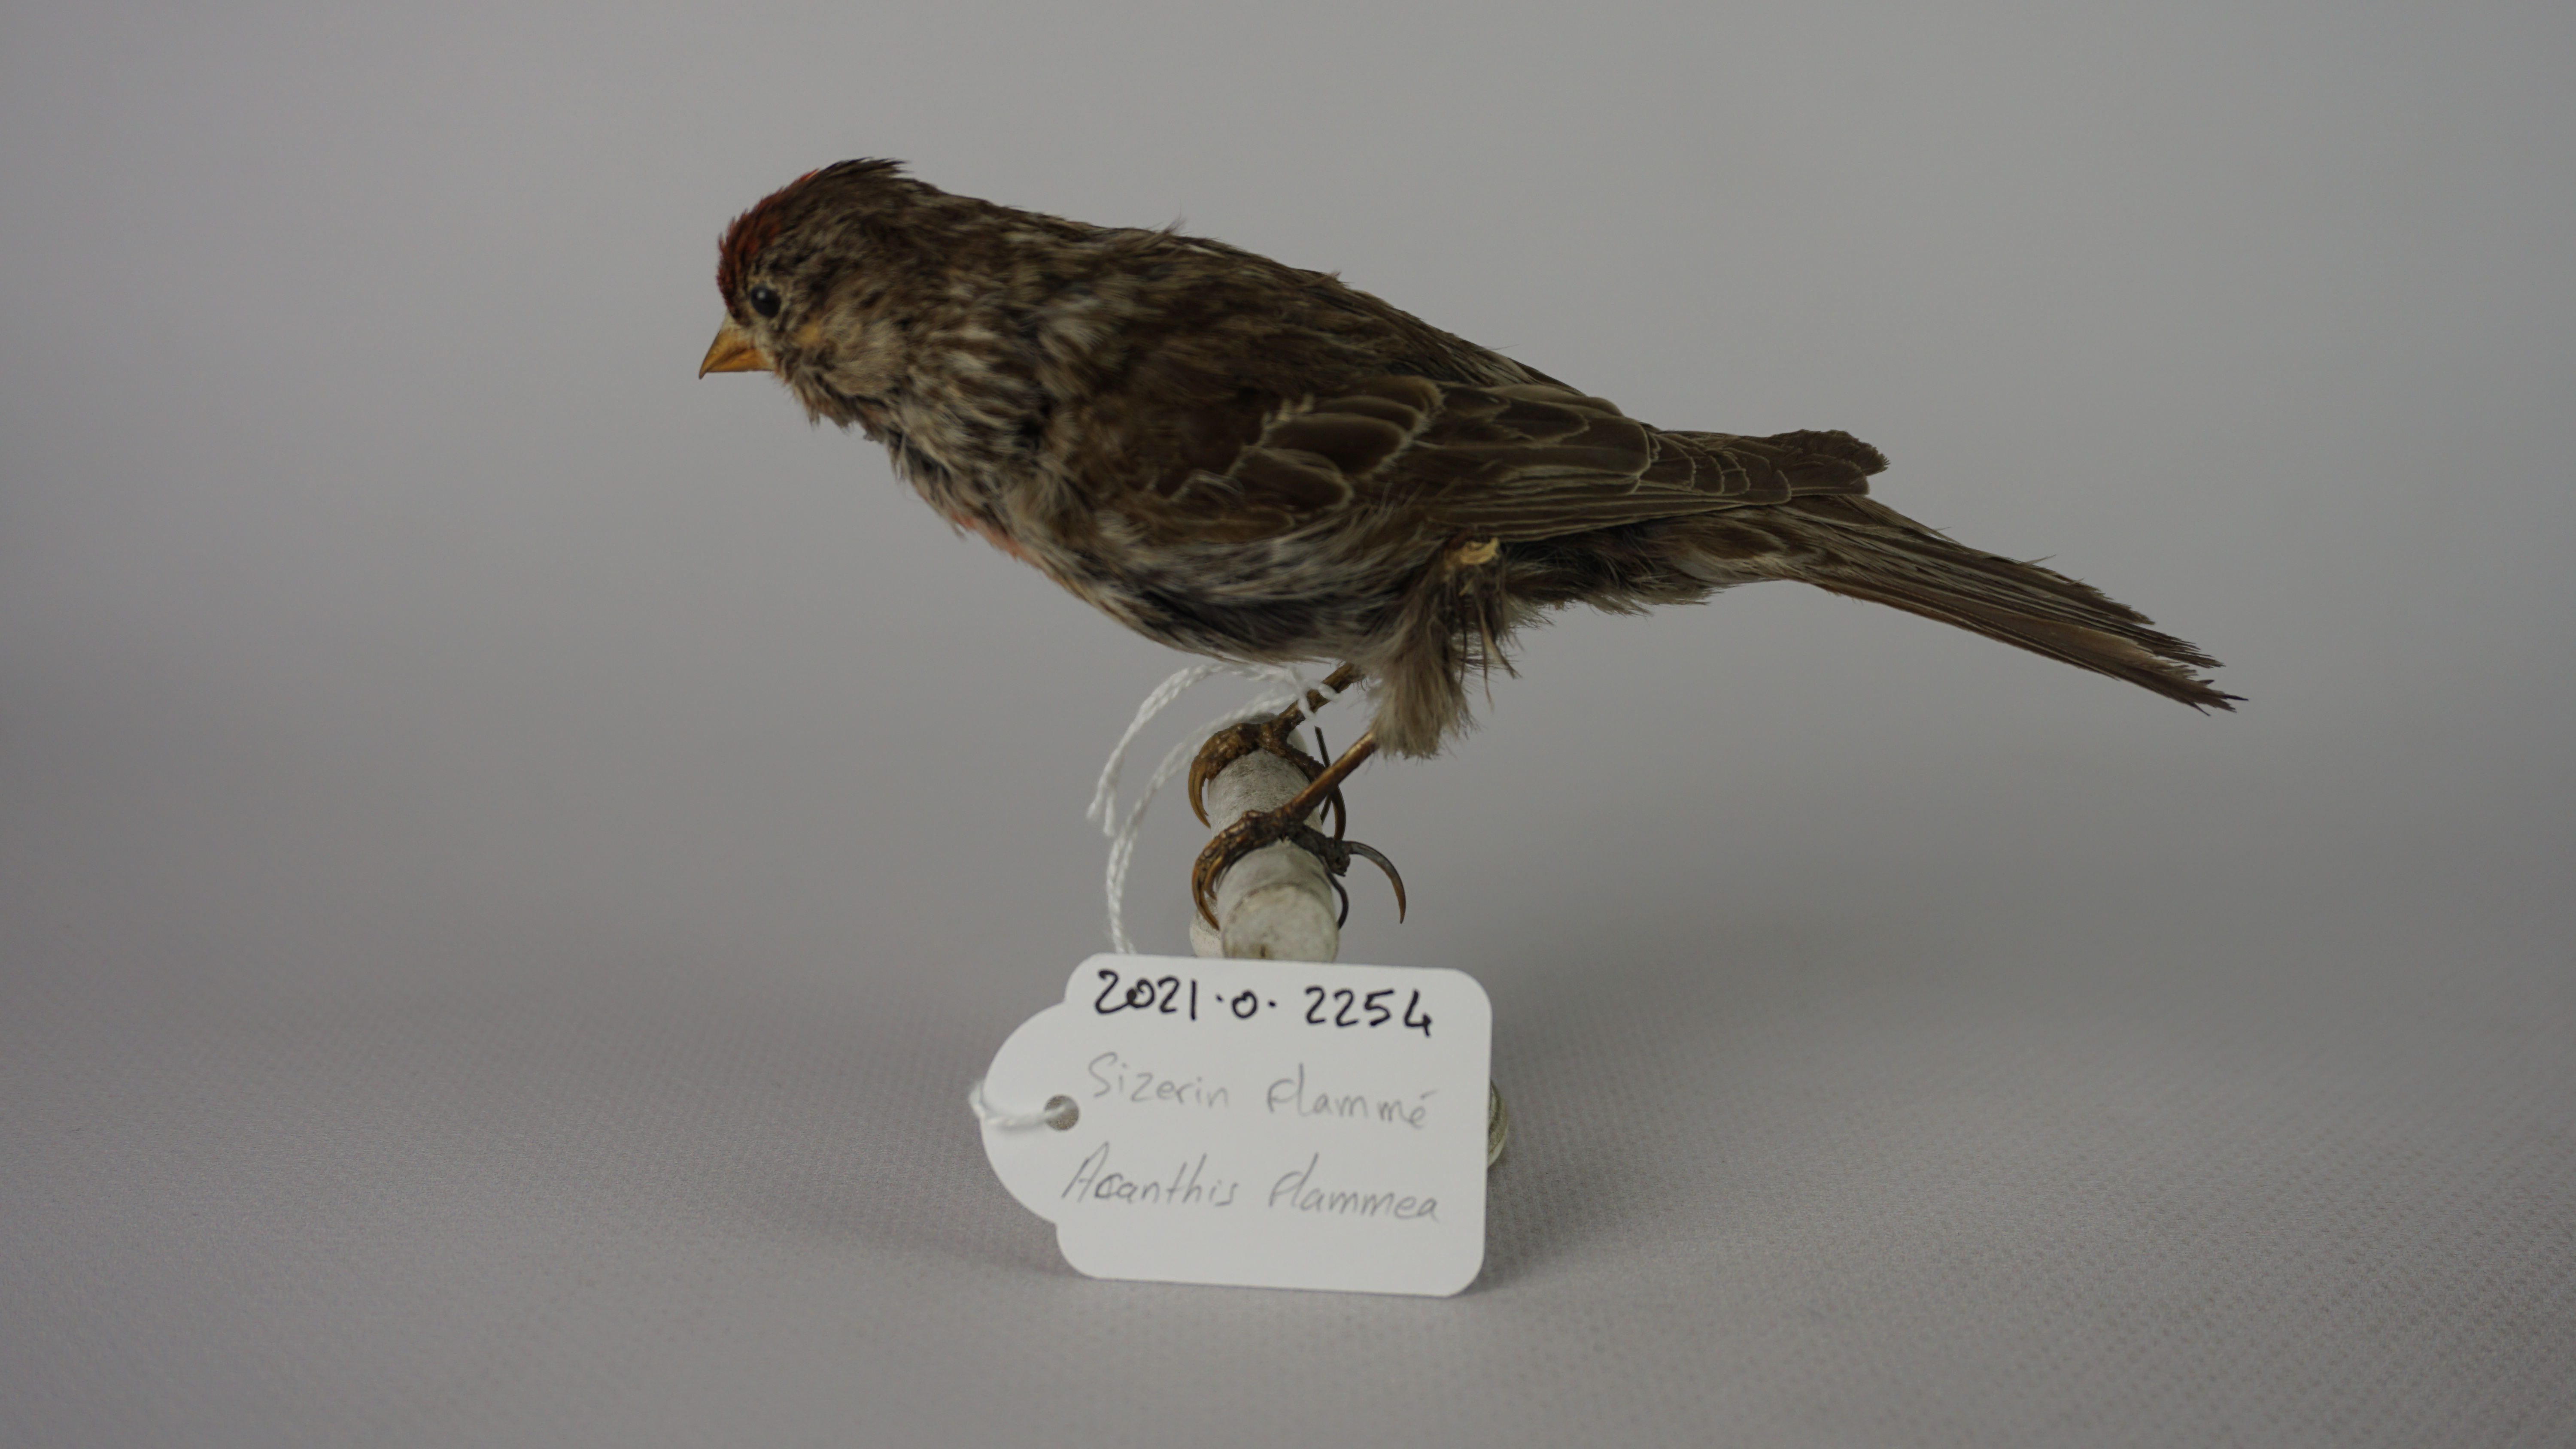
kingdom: Animalia
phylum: Chordata
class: Aves
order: Passeriformes
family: Fringillidae
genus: Acanthis
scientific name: Acanthis flammea
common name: Common redpoll
